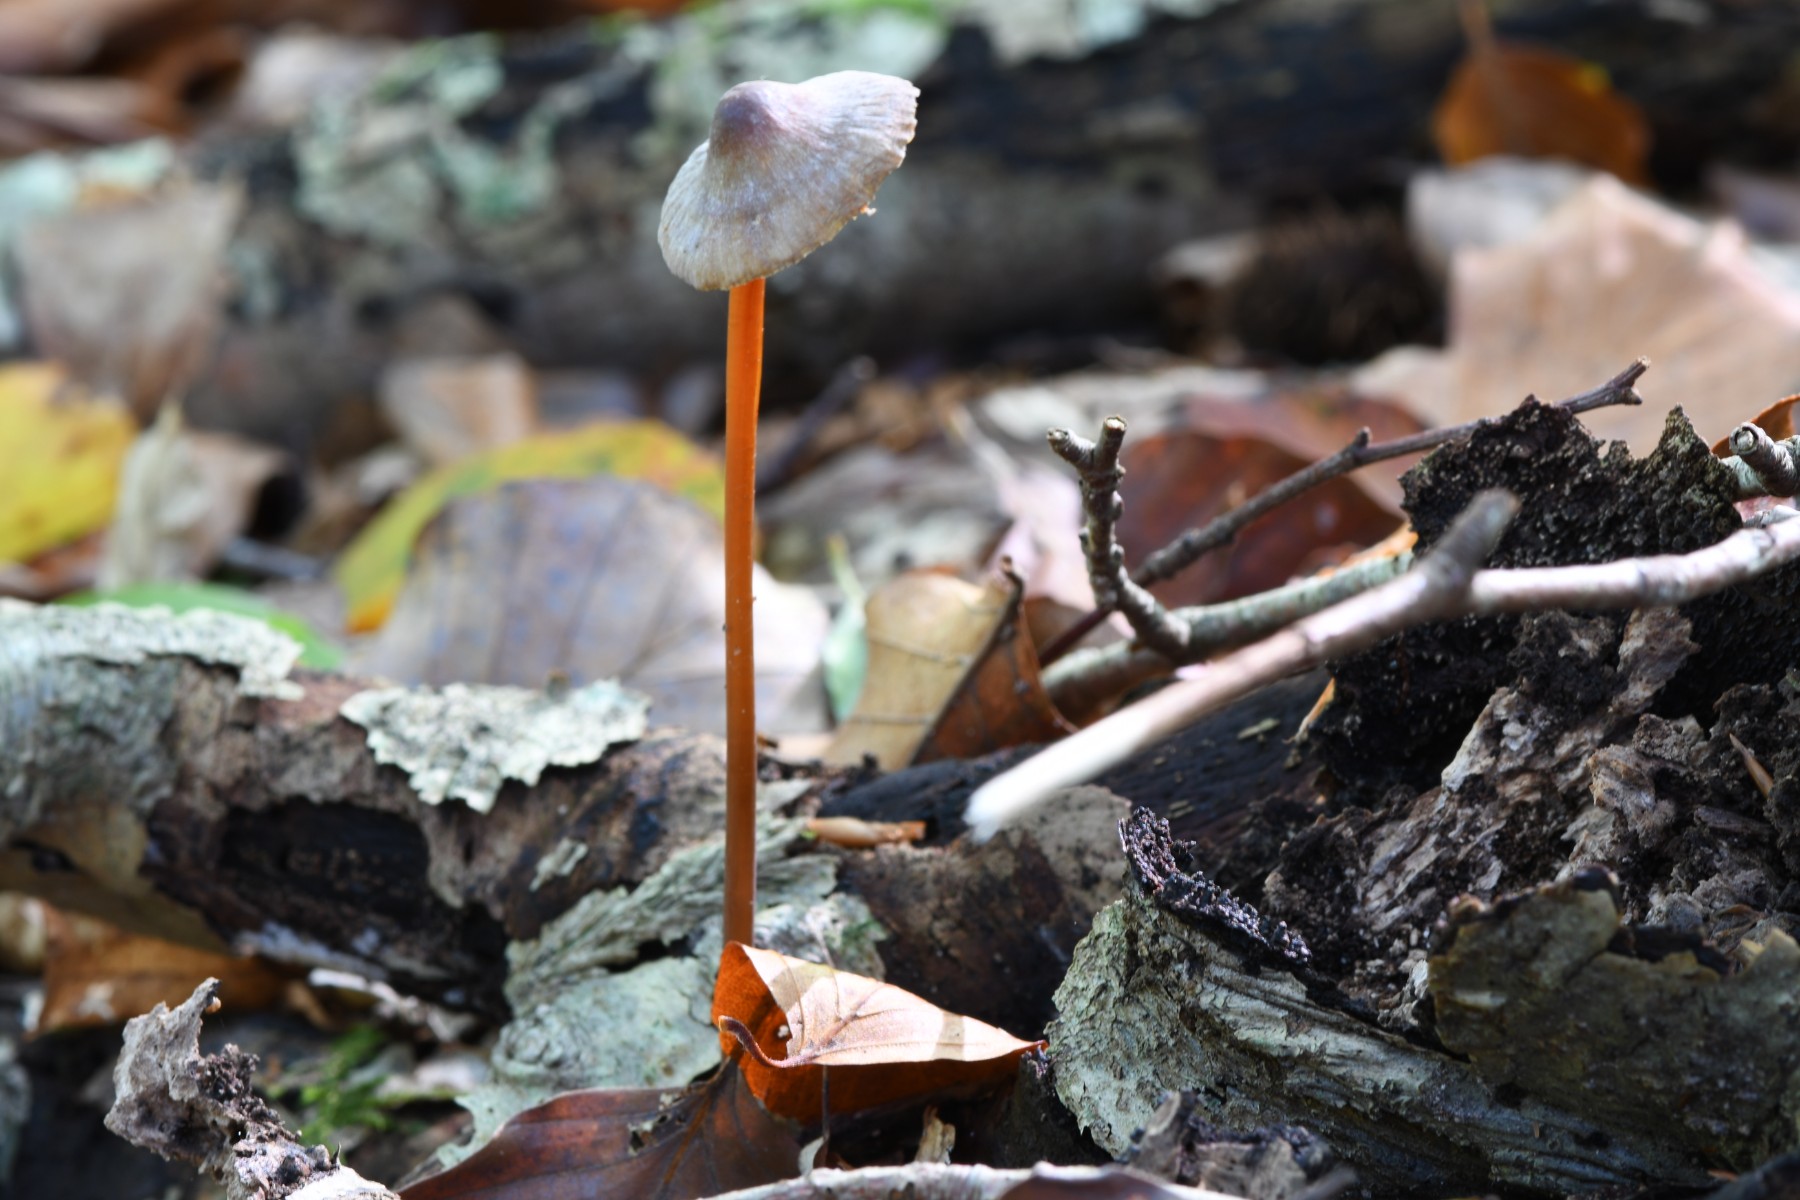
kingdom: Fungi
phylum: Basidiomycota
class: Agaricomycetes
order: Agaricales
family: Mycenaceae
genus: Mycena
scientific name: Mycena crocata
